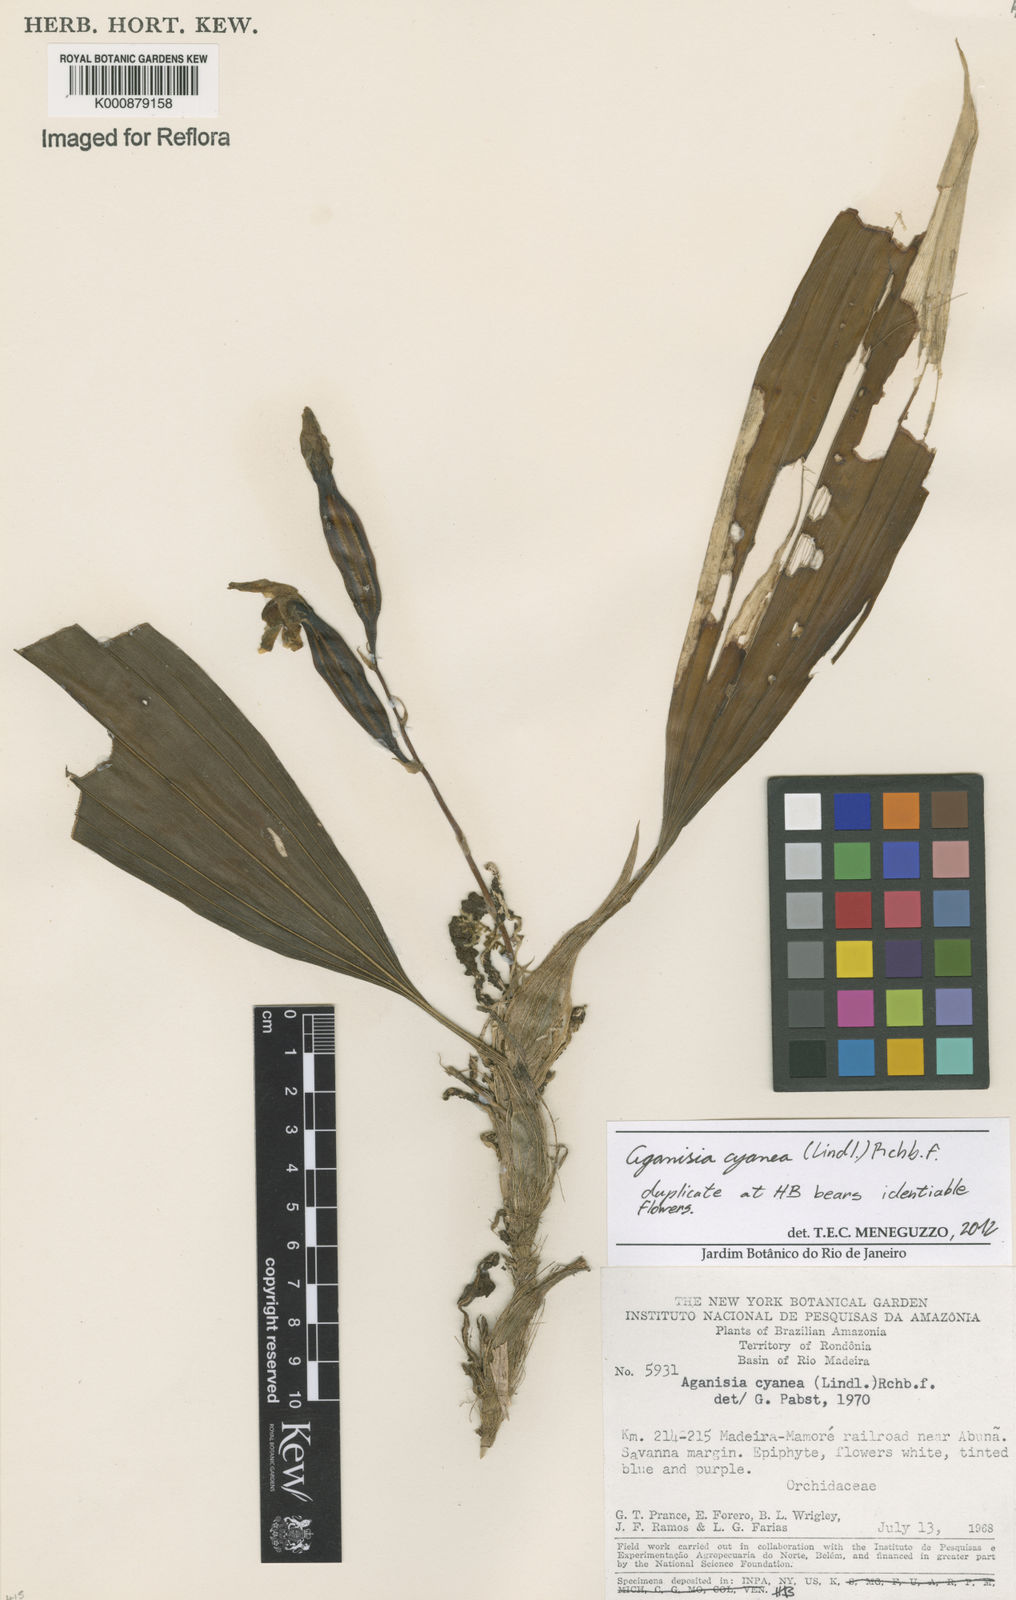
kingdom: Plantae
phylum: Tracheophyta
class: Liliopsida
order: Asparagales
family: Orchidaceae
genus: Aganisia
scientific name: Aganisia cyanea
